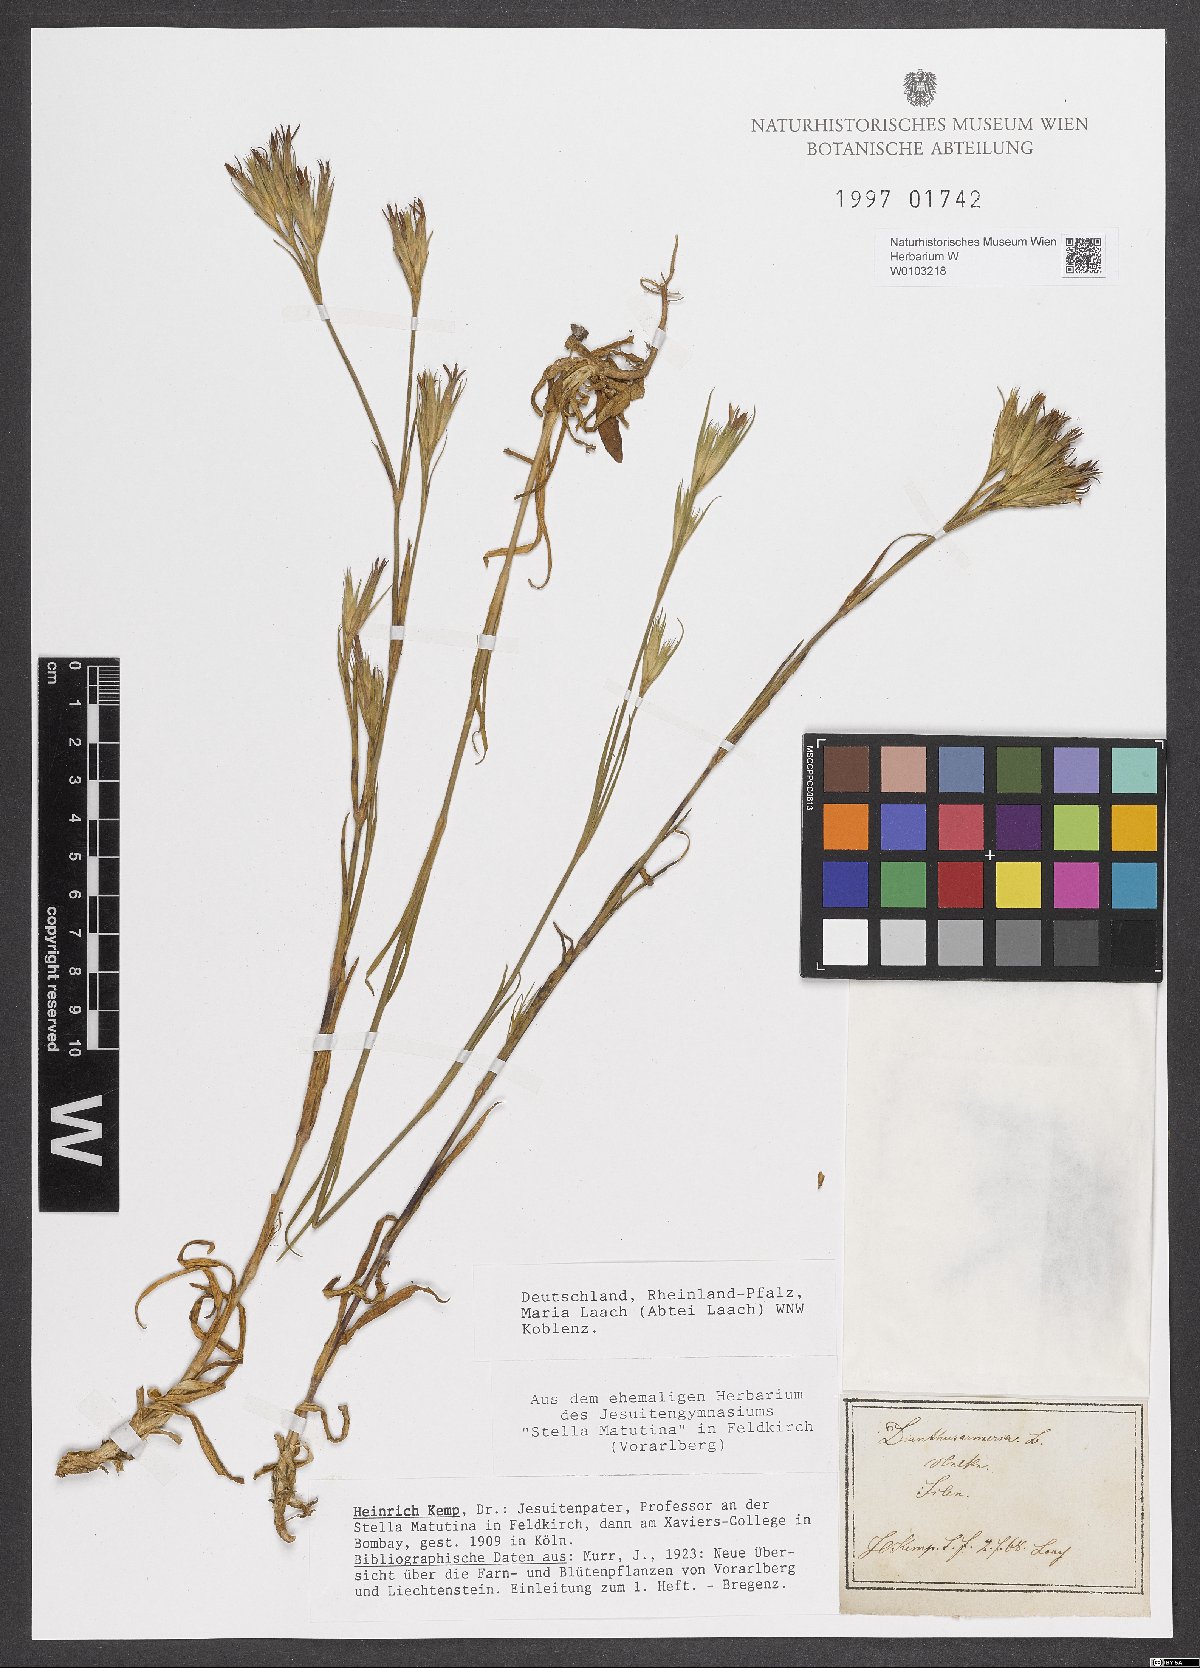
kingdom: Plantae
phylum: Tracheophyta
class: Magnoliopsida
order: Caryophyllales
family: Caryophyllaceae
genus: Dianthus
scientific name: Dianthus armeria
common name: Deptford pink
